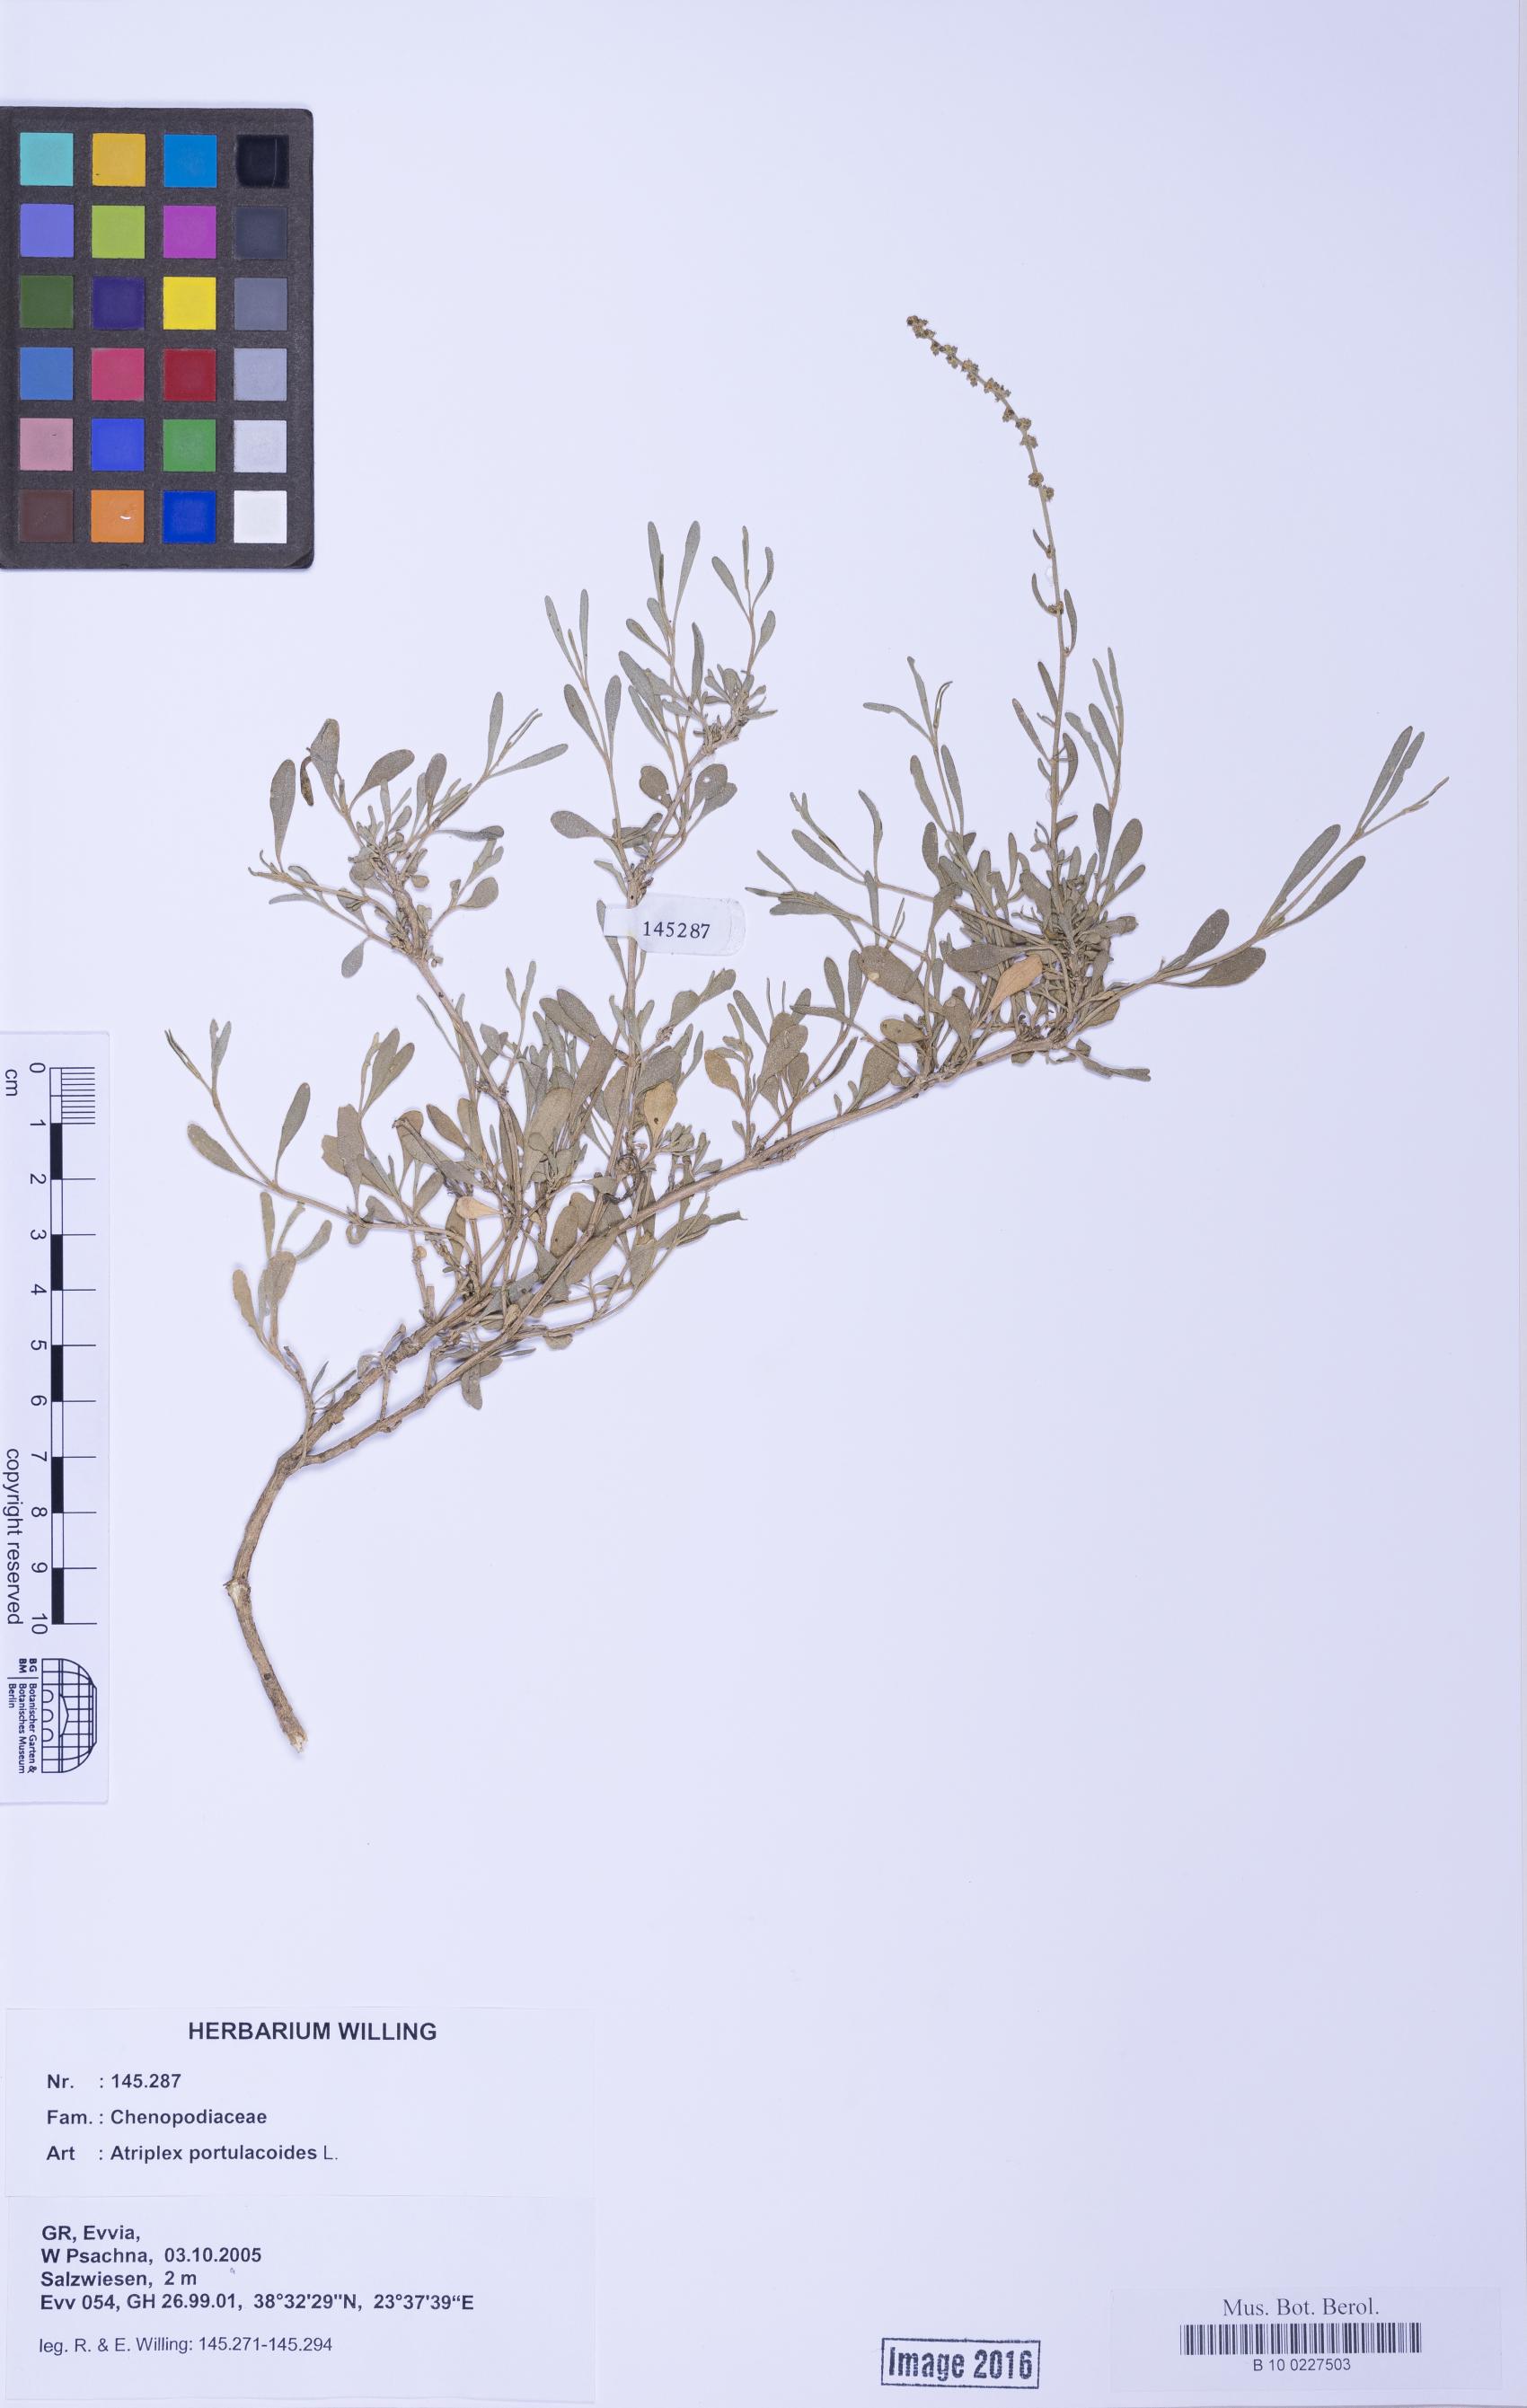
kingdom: Plantae
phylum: Tracheophyta
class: Magnoliopsida
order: Caryophyllales
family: Amaranthaceae
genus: Halimione
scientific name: Halimione portulacoides
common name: Sea-purslane
